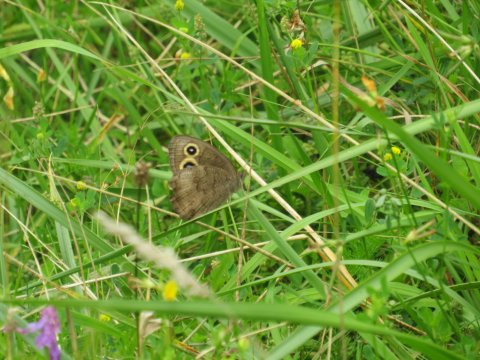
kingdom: Animalia
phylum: Arthropoda
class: Insecta
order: Lepidoptera
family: Nymphalidae
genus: Cercyonis
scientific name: Cercyonis pegala
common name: Common Wood-Nymph
